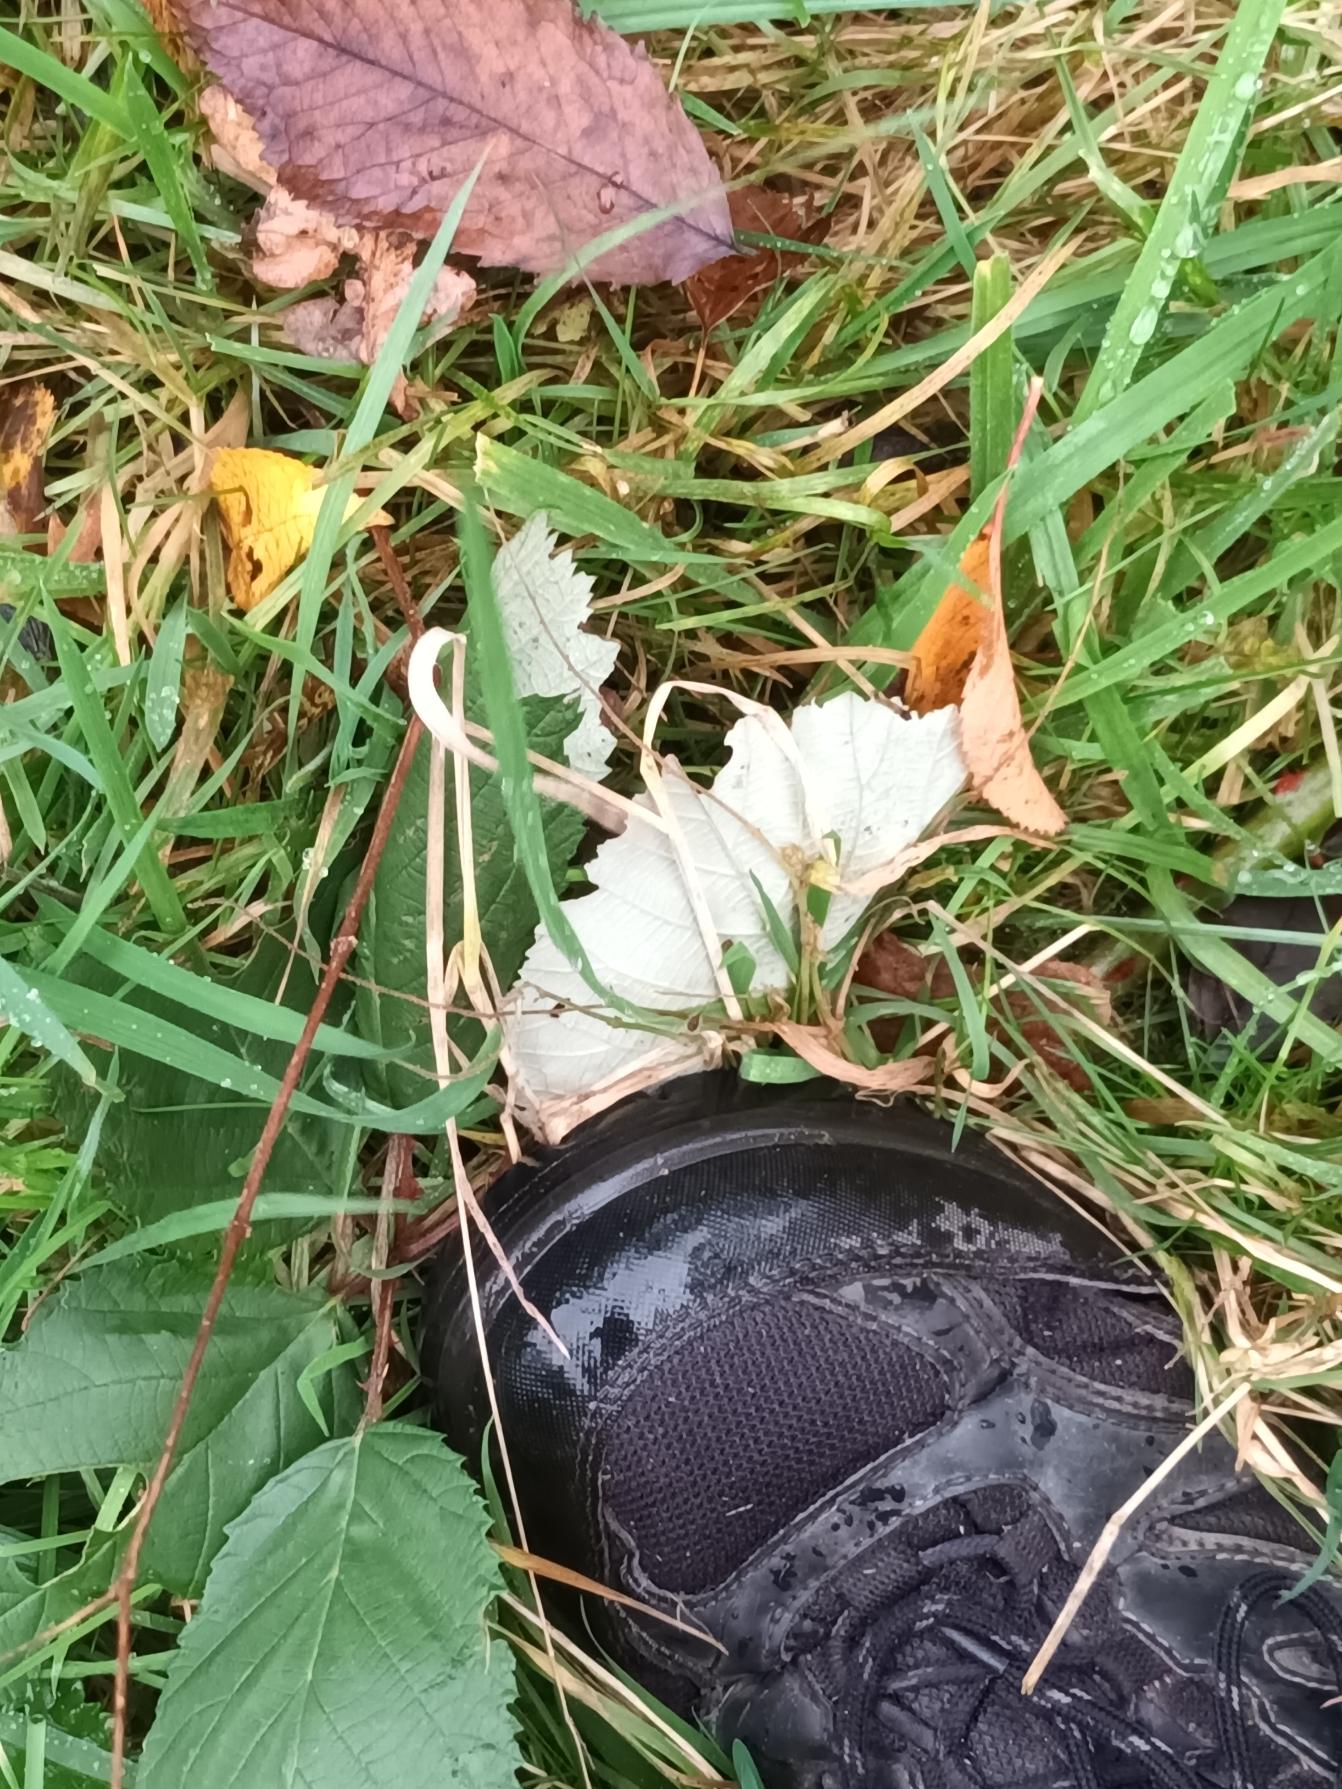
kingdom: Plantae
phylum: Tracheophyta
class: Magnoliopsida
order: Rosales
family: Rosaceae
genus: Rubus
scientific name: Rubus armeniacus
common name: Armensk brombær
